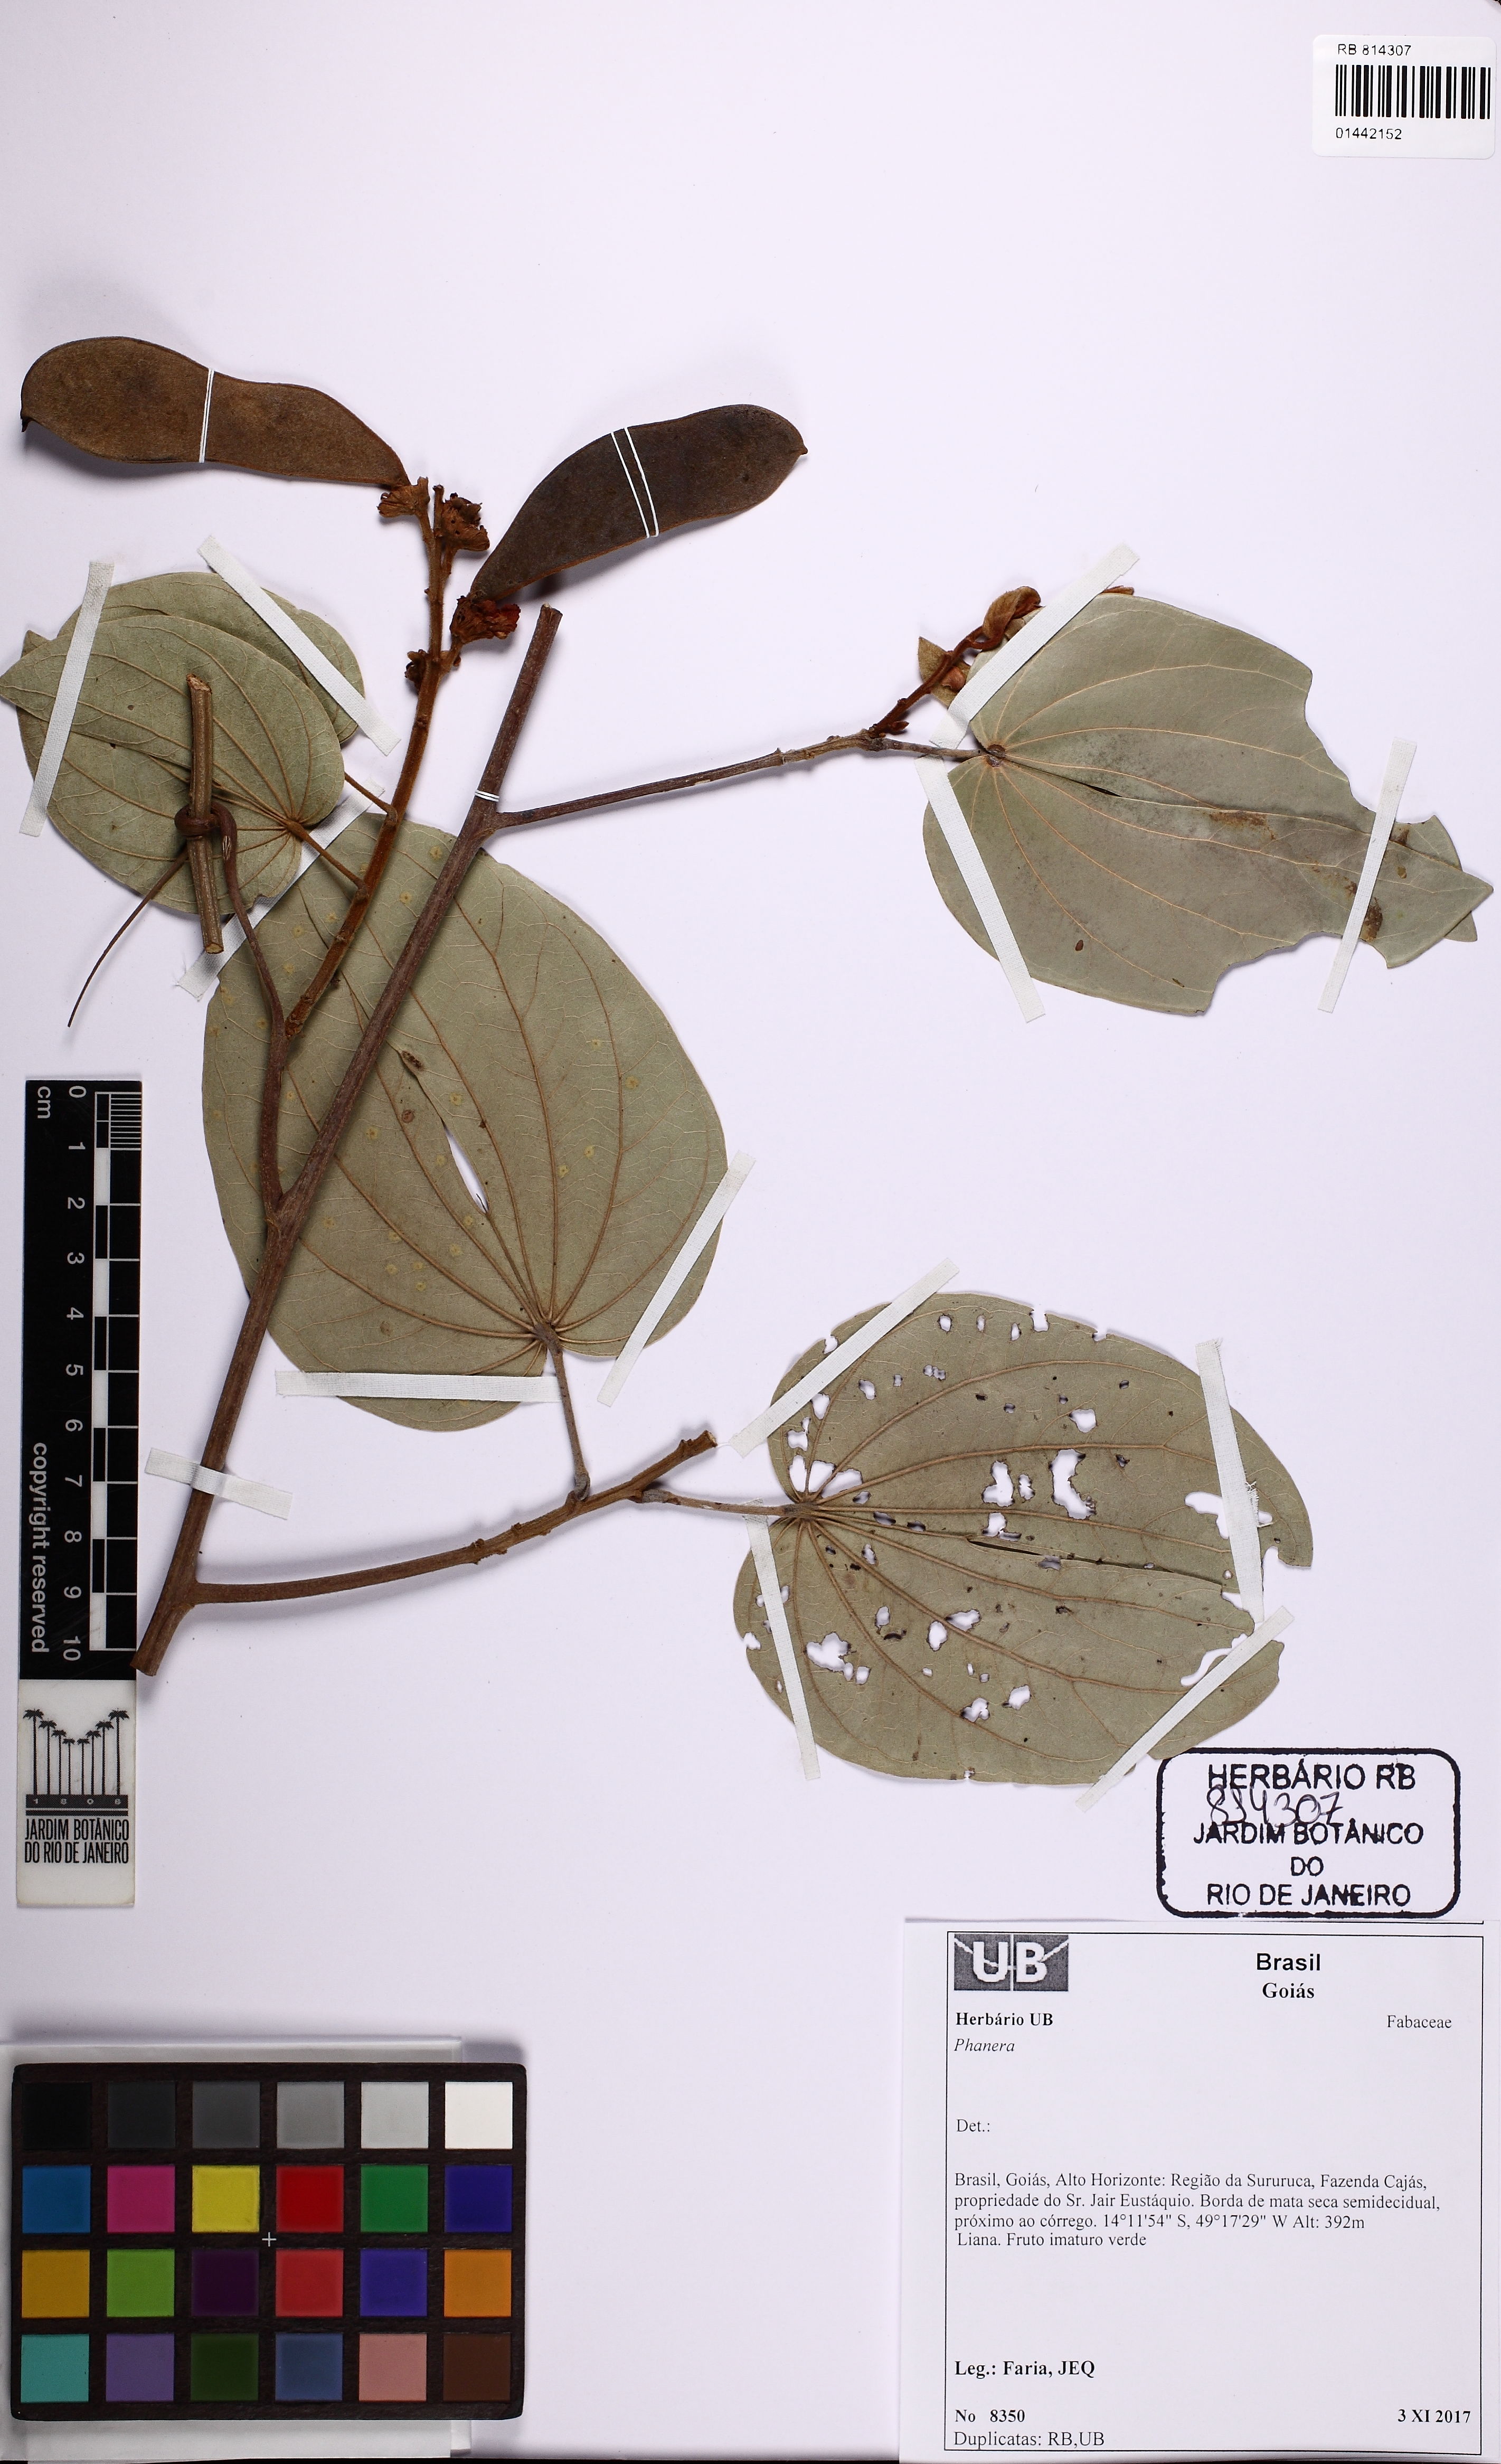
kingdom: Plantae
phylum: Tracheophyta
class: Magnoliopsida
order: Fabales
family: Fabaceae
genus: Phanera
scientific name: Phanera
